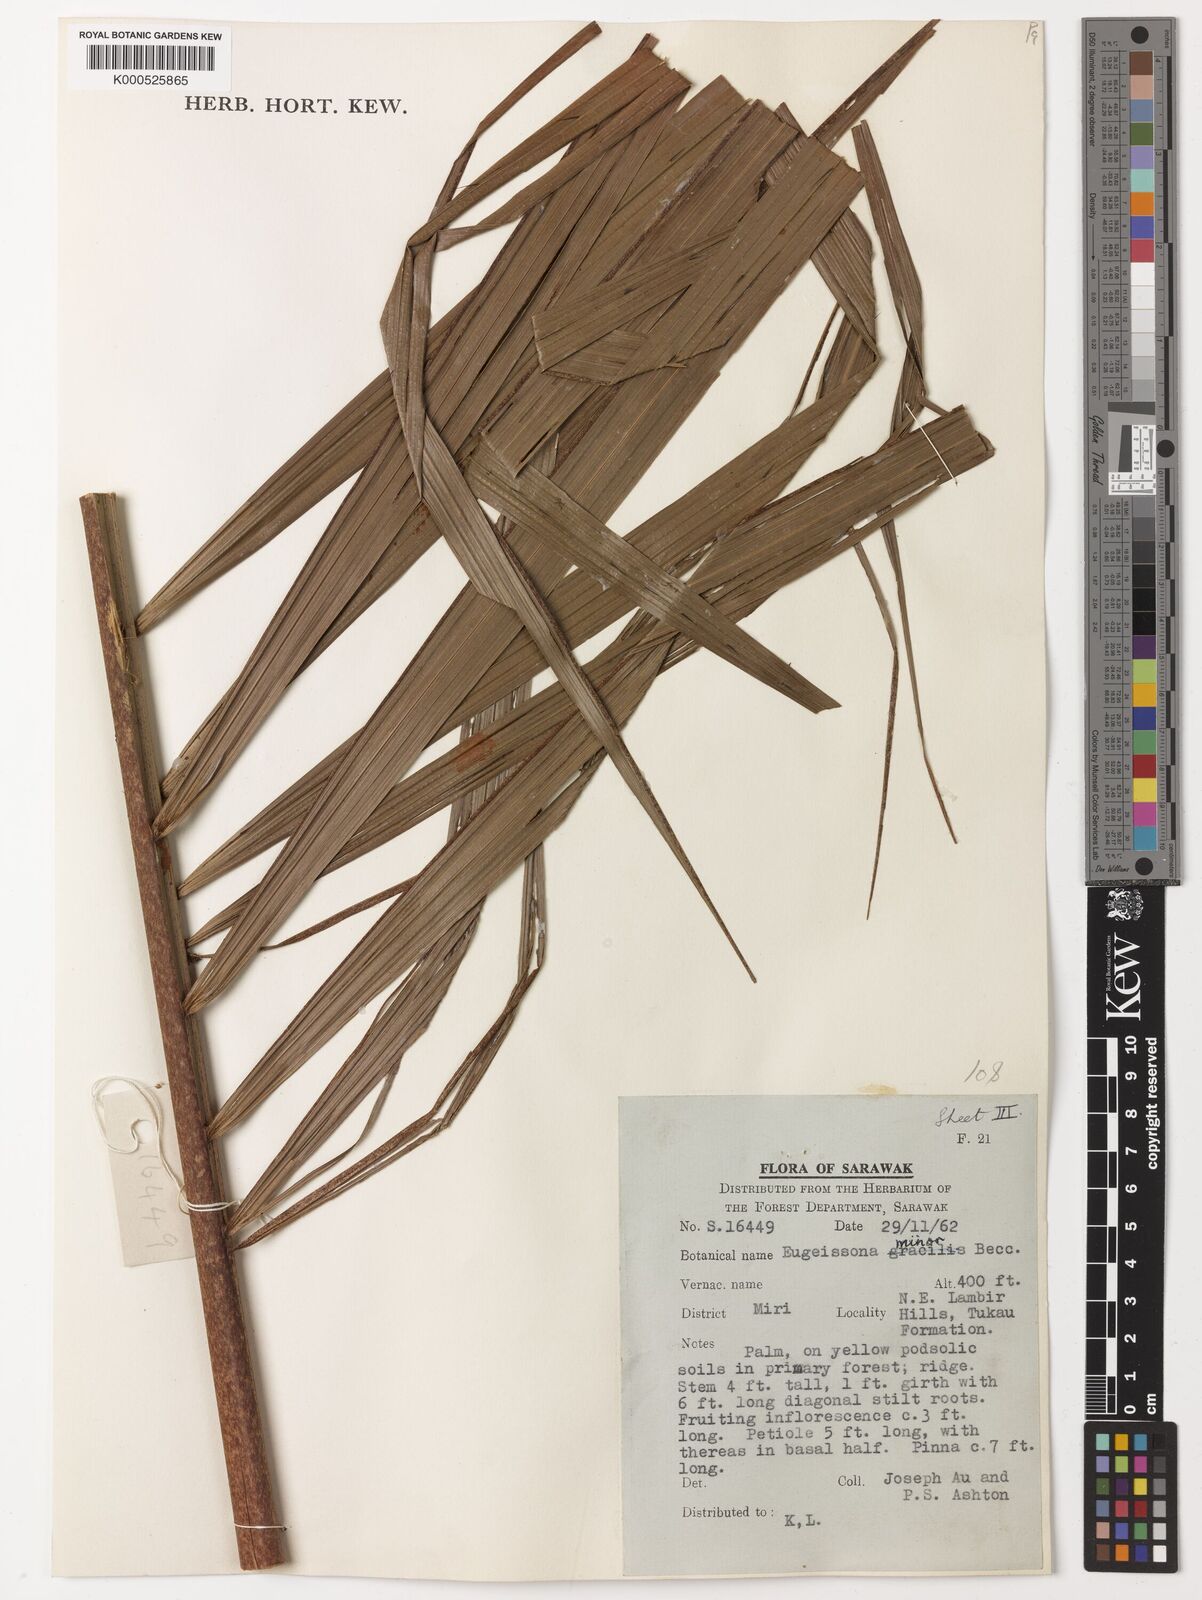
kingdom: Plantae
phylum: Tracheophyta
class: Liliopsida
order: Arecales
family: Arecaceae
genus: Eugeissona
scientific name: Eugeissona minor
